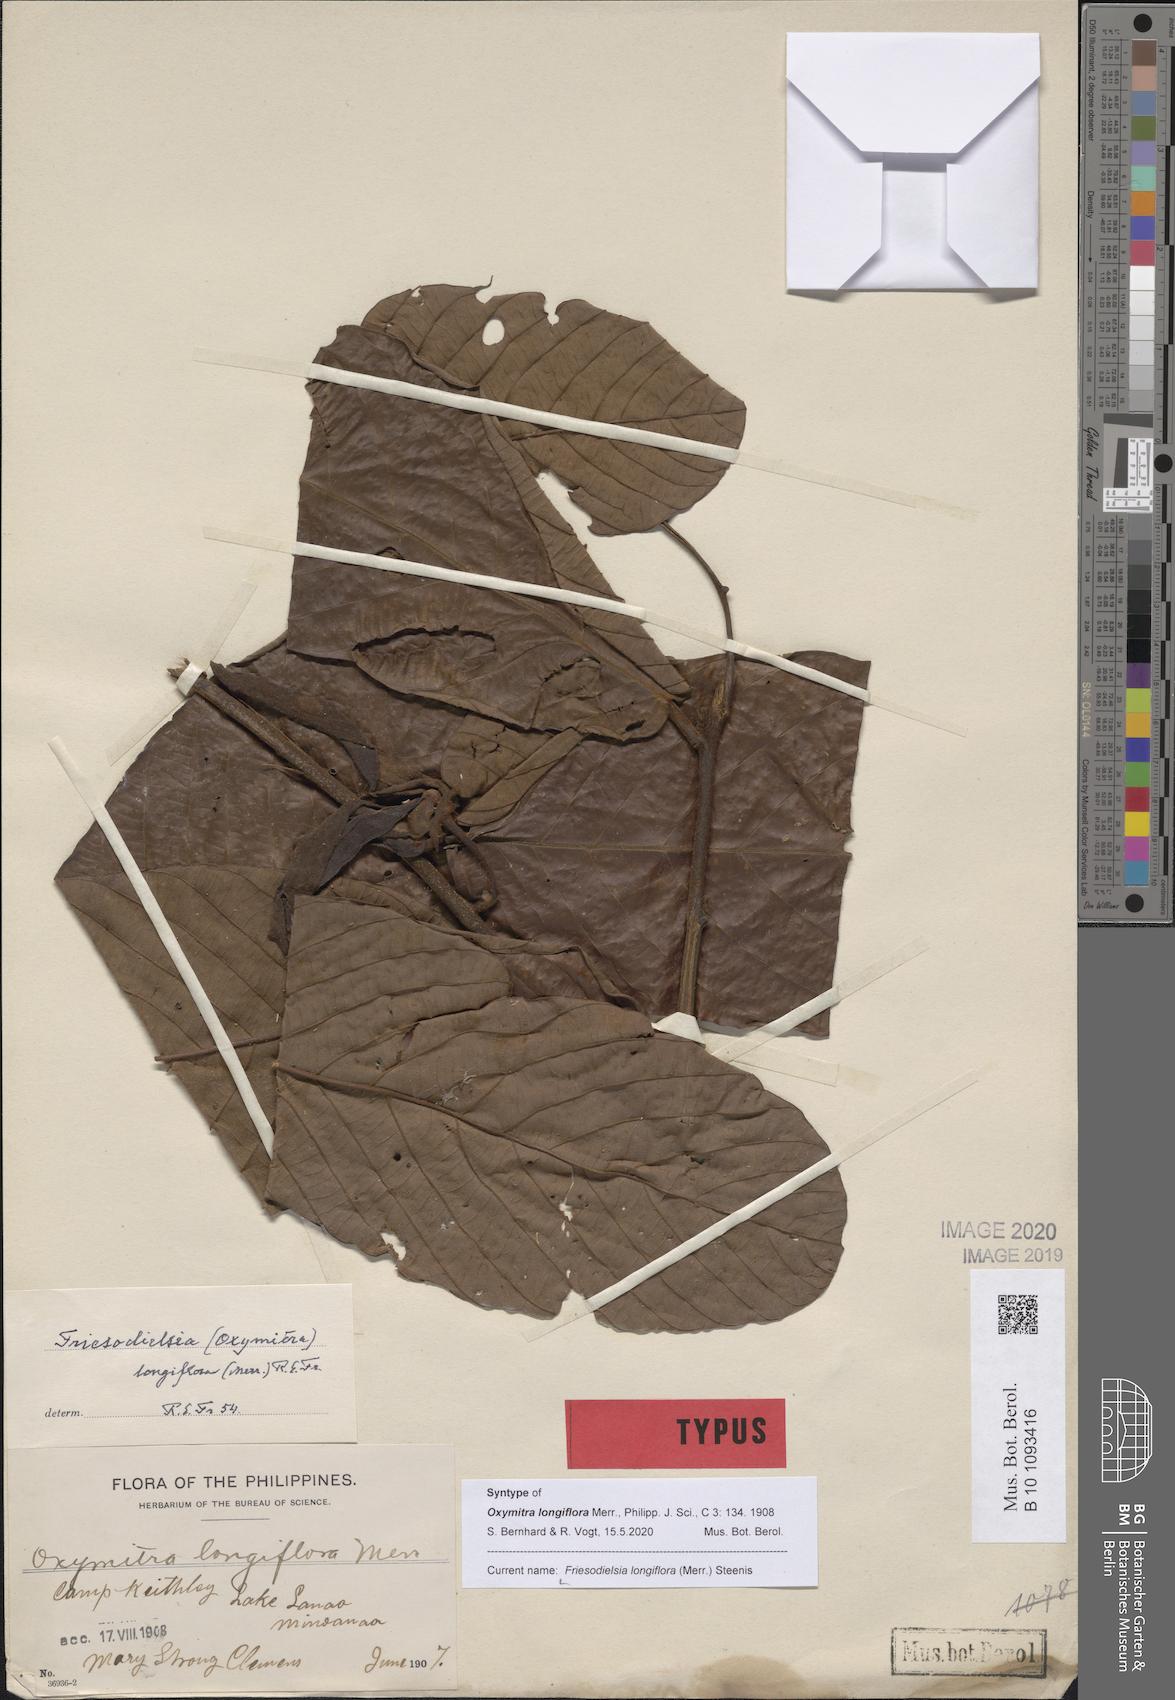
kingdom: Plantae
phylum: Tracheophyta
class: Magnoliopsida
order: Magnoliales
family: Annonaceae
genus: Friesodielsia
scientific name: Friesodielsia longiflora
